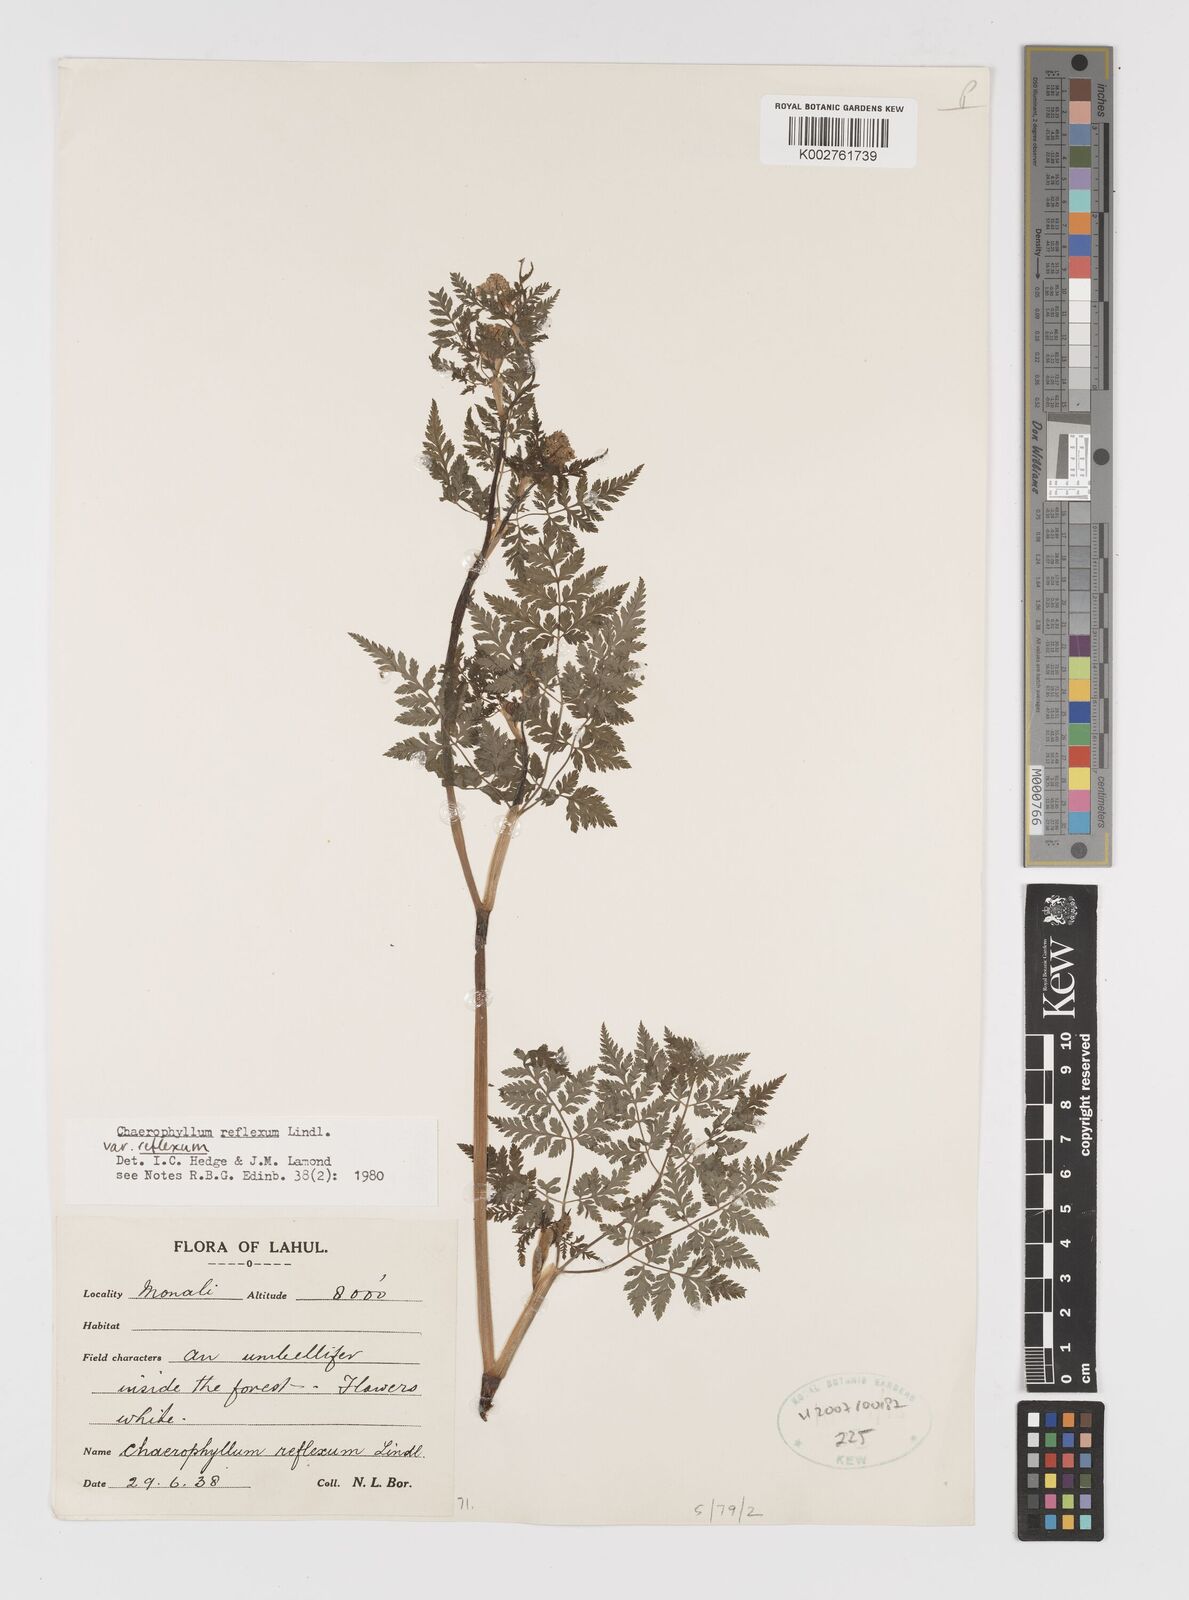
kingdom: Plantae
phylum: Tracheophyta
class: Magnoliopsida
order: Apiales
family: Apiaceae
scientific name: Apiaceae
